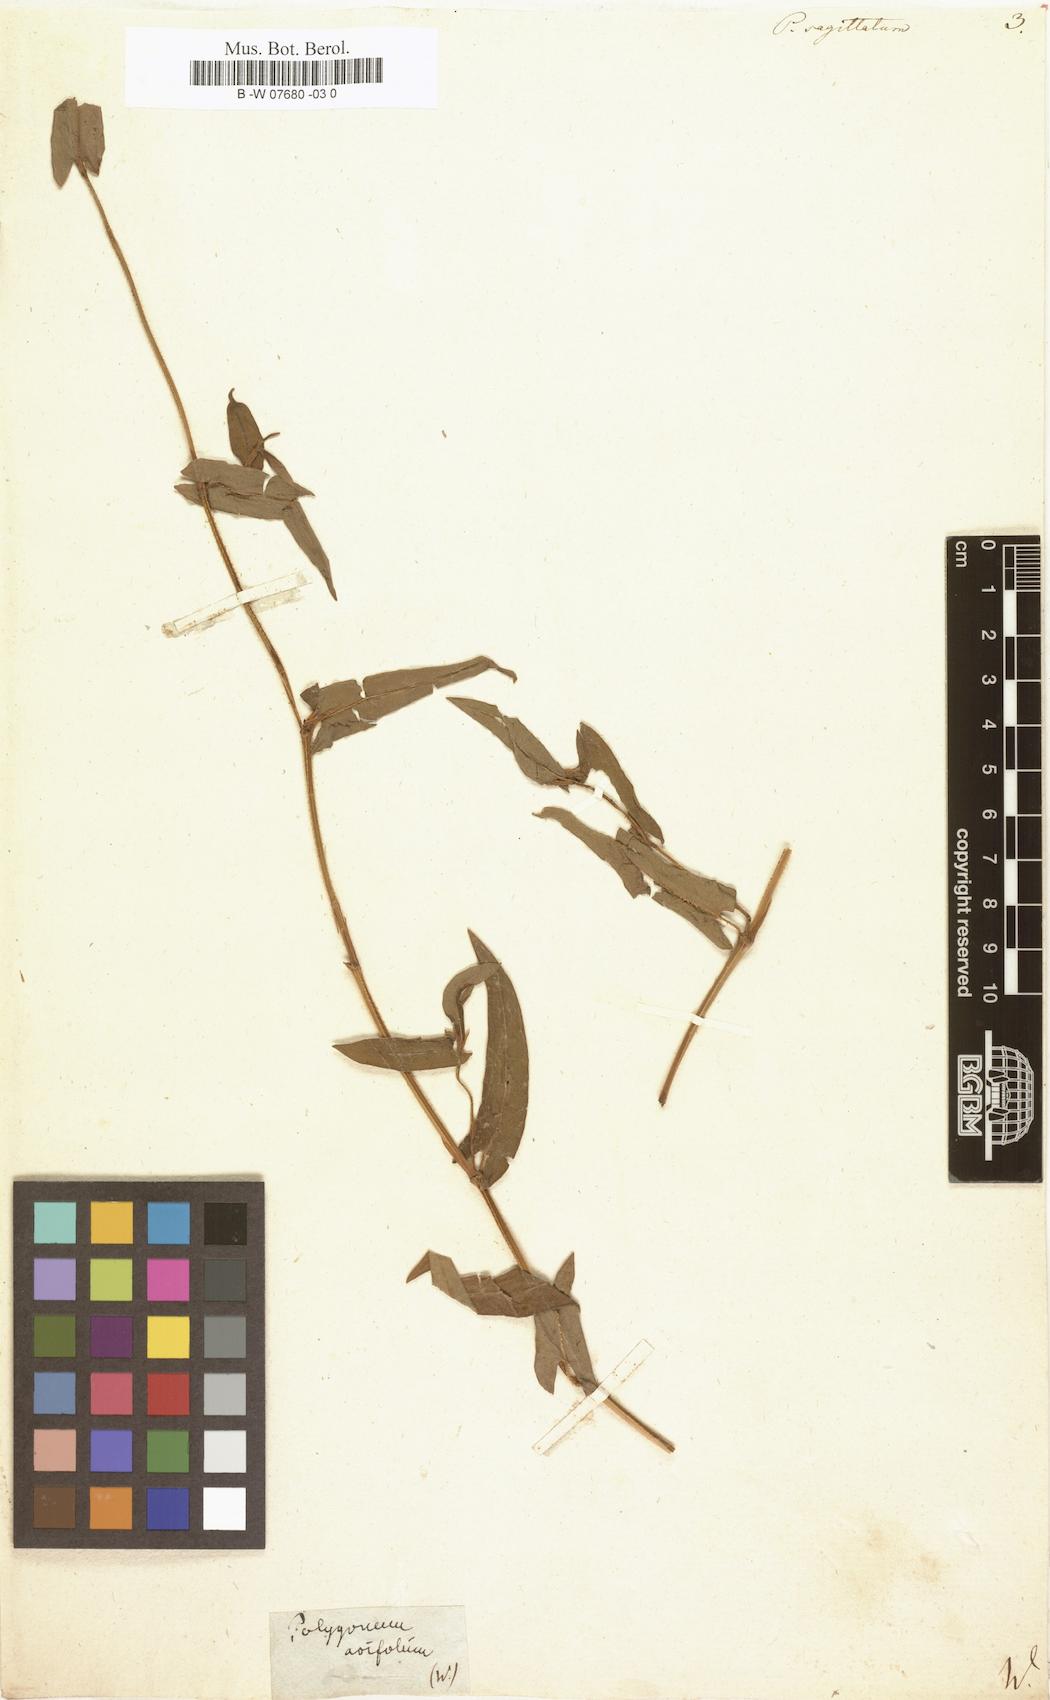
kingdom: Plantae
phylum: Tracheophyta
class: Magnoliopsida
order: Caryophyllales
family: Polygonaceae
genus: Polygonum
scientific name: Polygonum sagittatum
